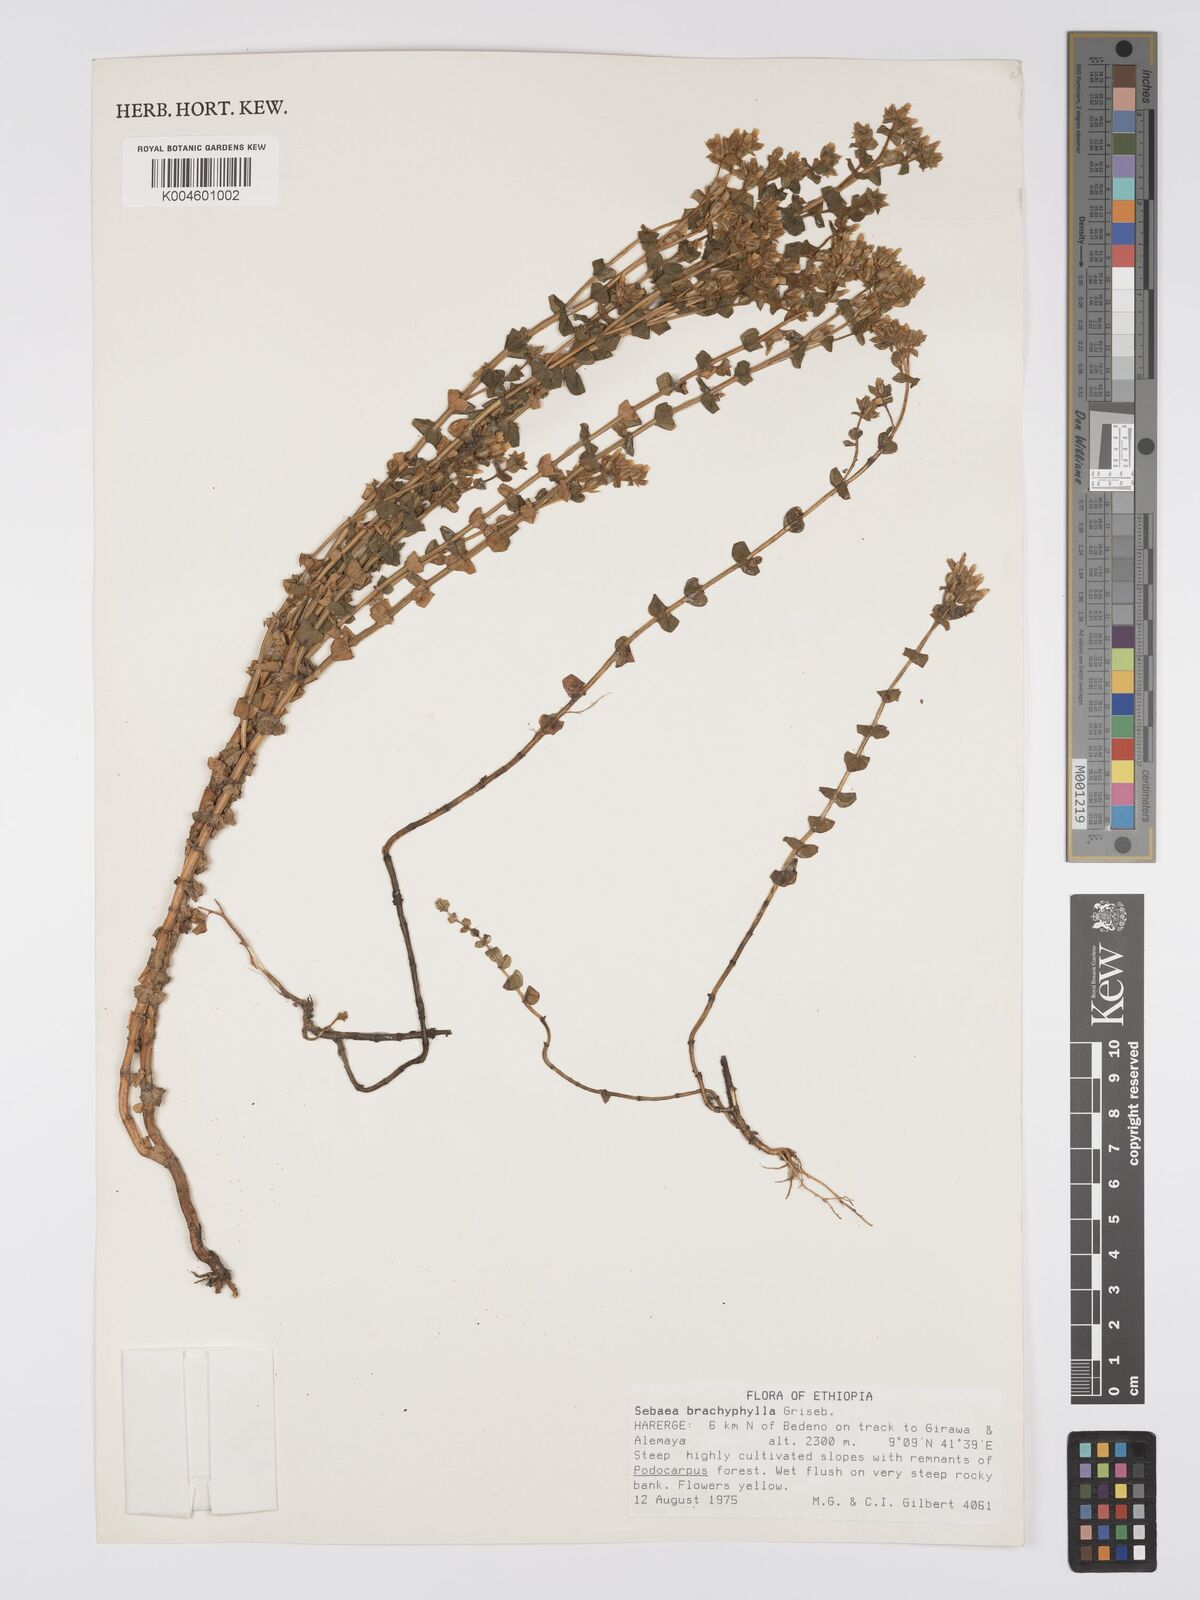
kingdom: Plantae
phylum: Tracheophyta
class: Magnoliopsida
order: Gentianales
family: Gentianaceae
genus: Sebaea
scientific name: Sebaea brachyphylla
